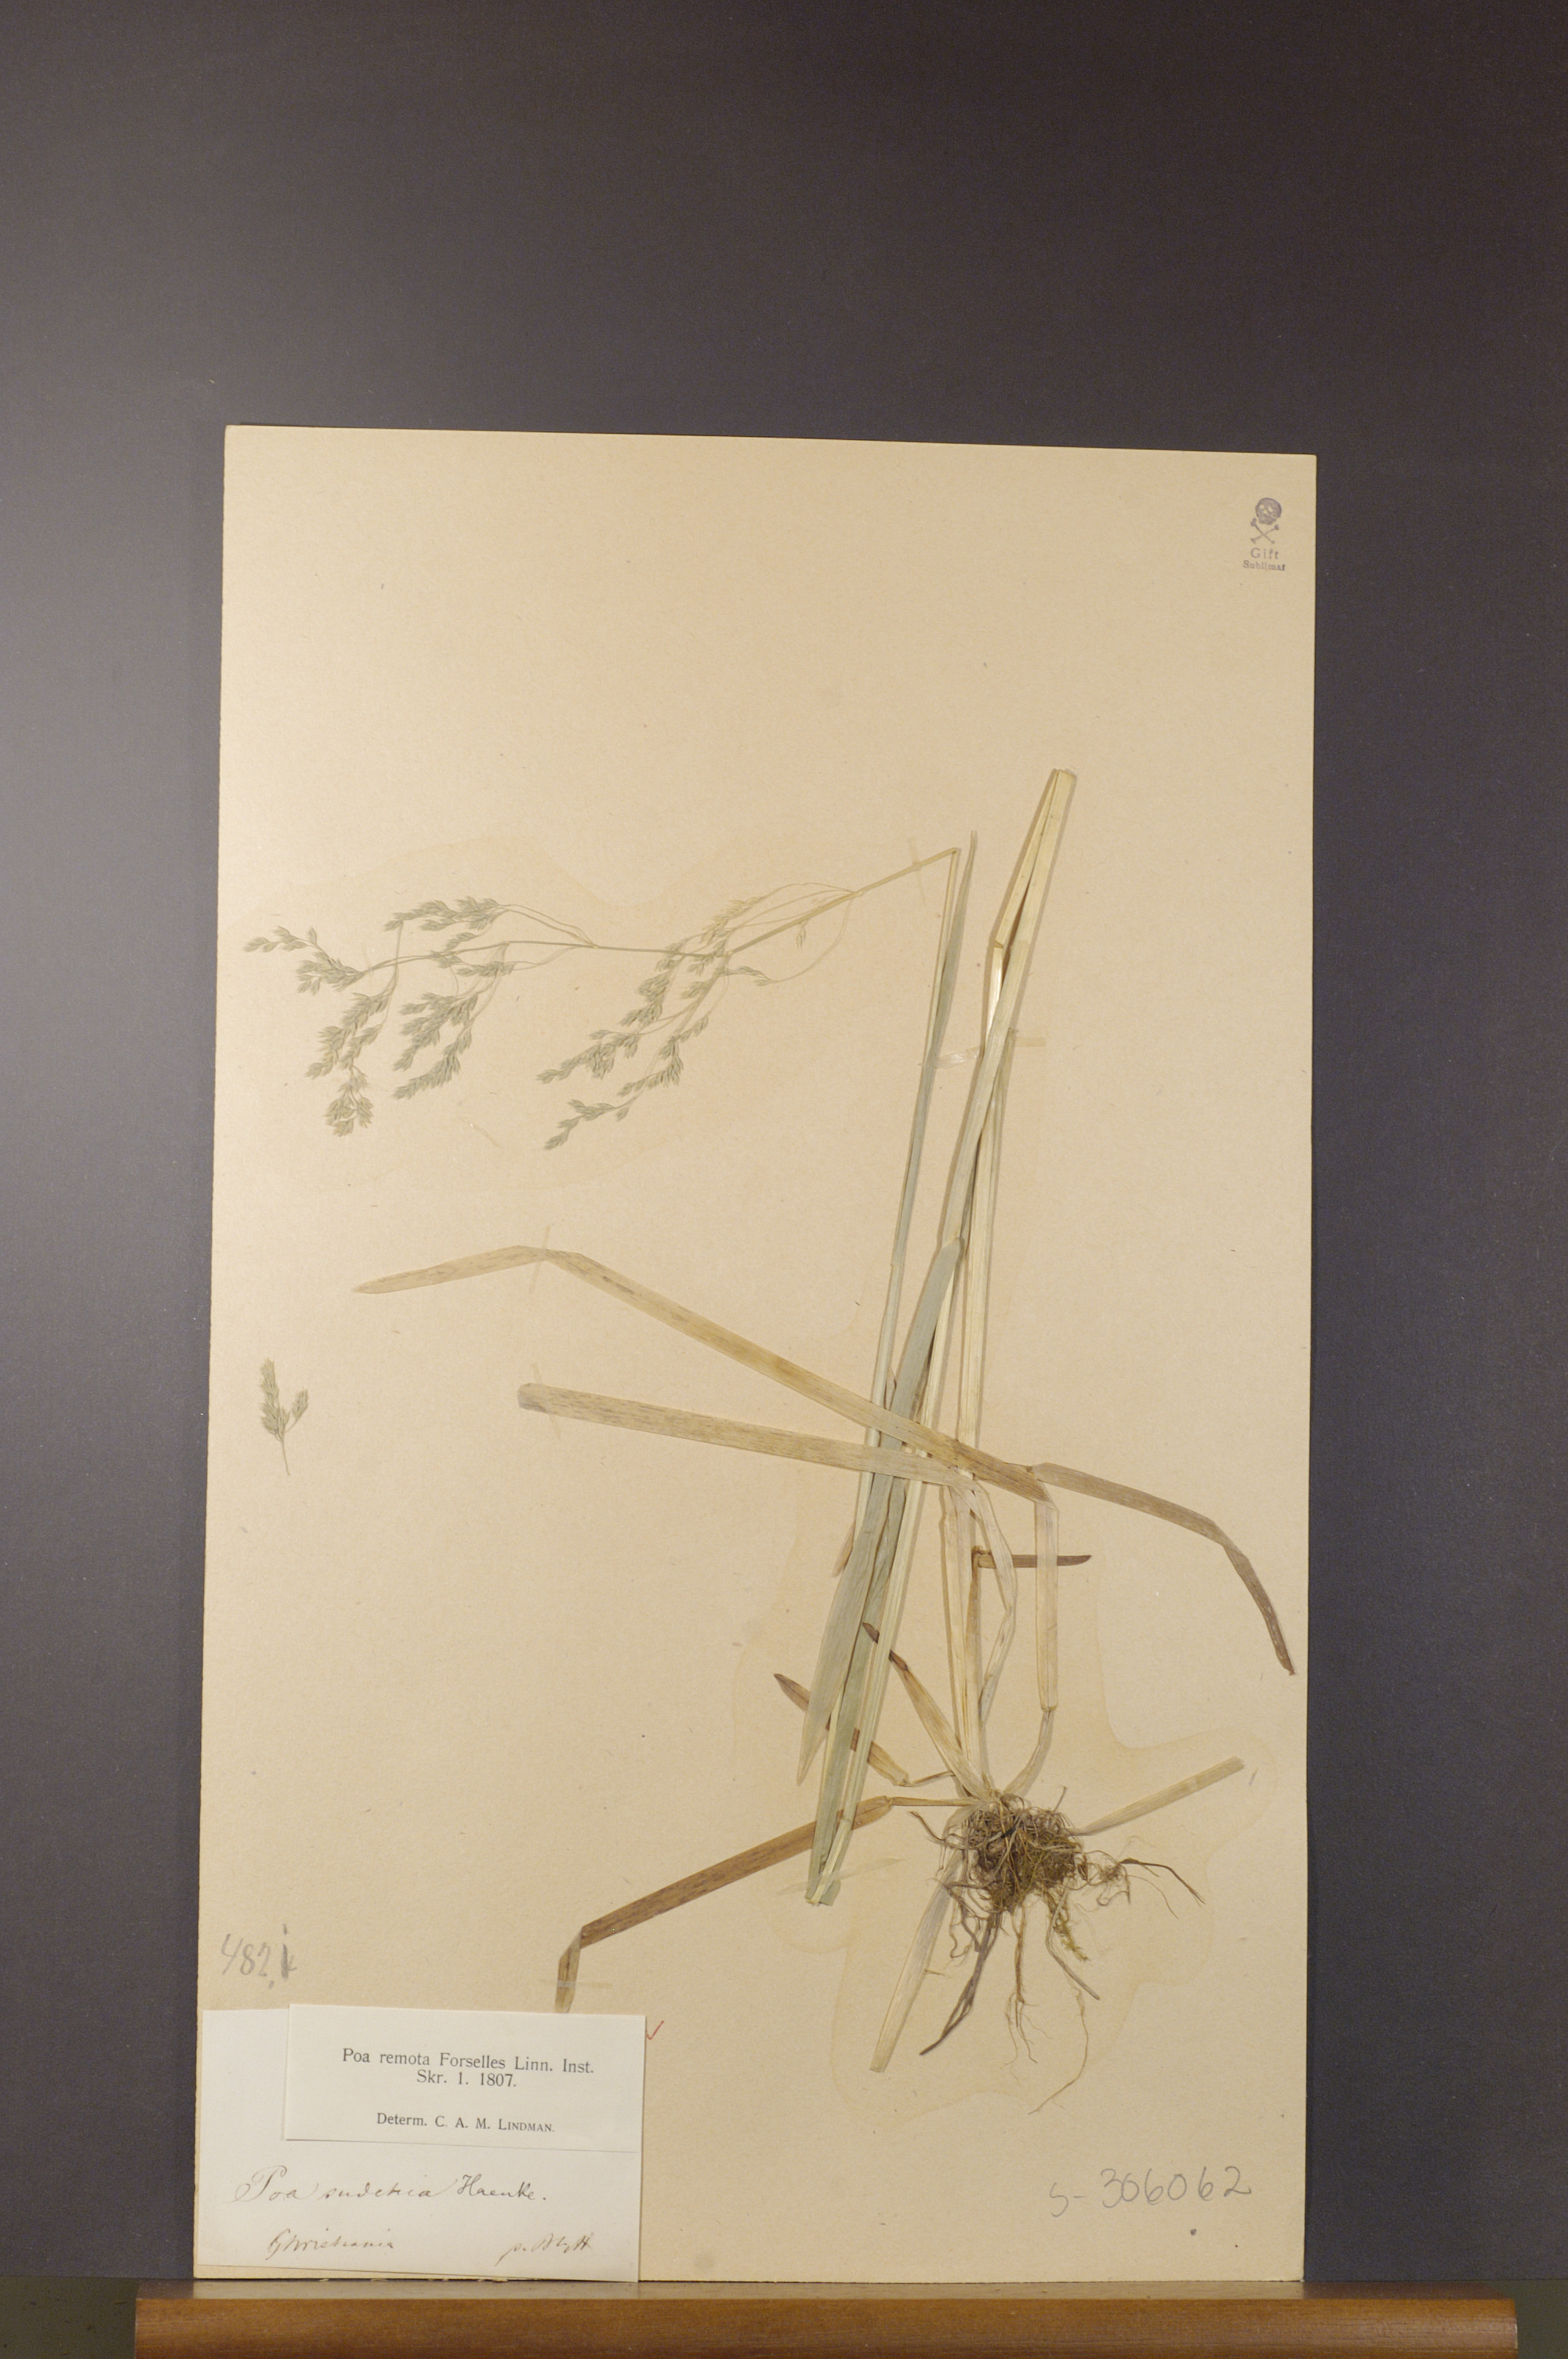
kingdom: Plantae
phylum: Tracheophyta
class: Liliopsida
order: Poales
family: Poaceae
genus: Poa
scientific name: Poa remota
